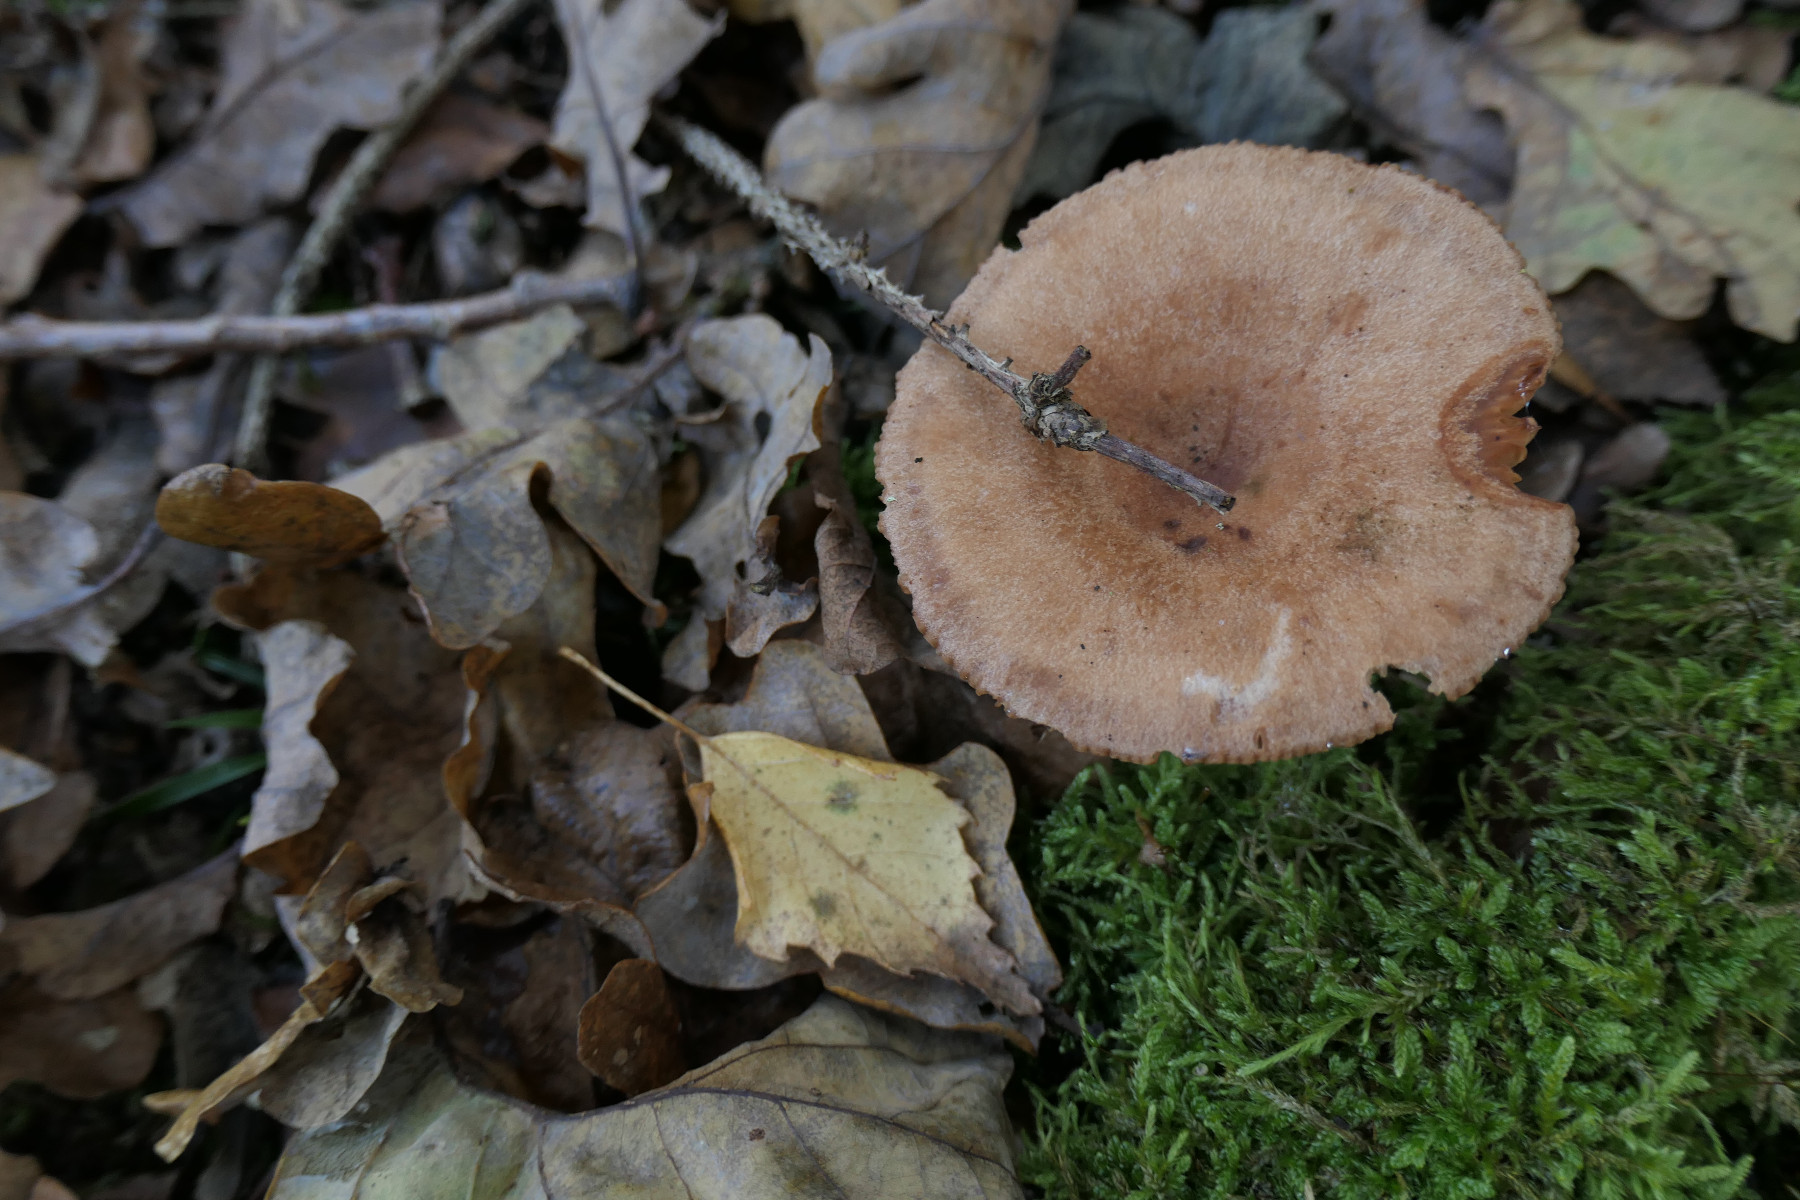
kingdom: Fungi
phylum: Basidiomycota
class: Agaricomycetes
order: Russulales
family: Russulaceae
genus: Lactarius
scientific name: Lactarius quietus
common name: ege-mælkehat
